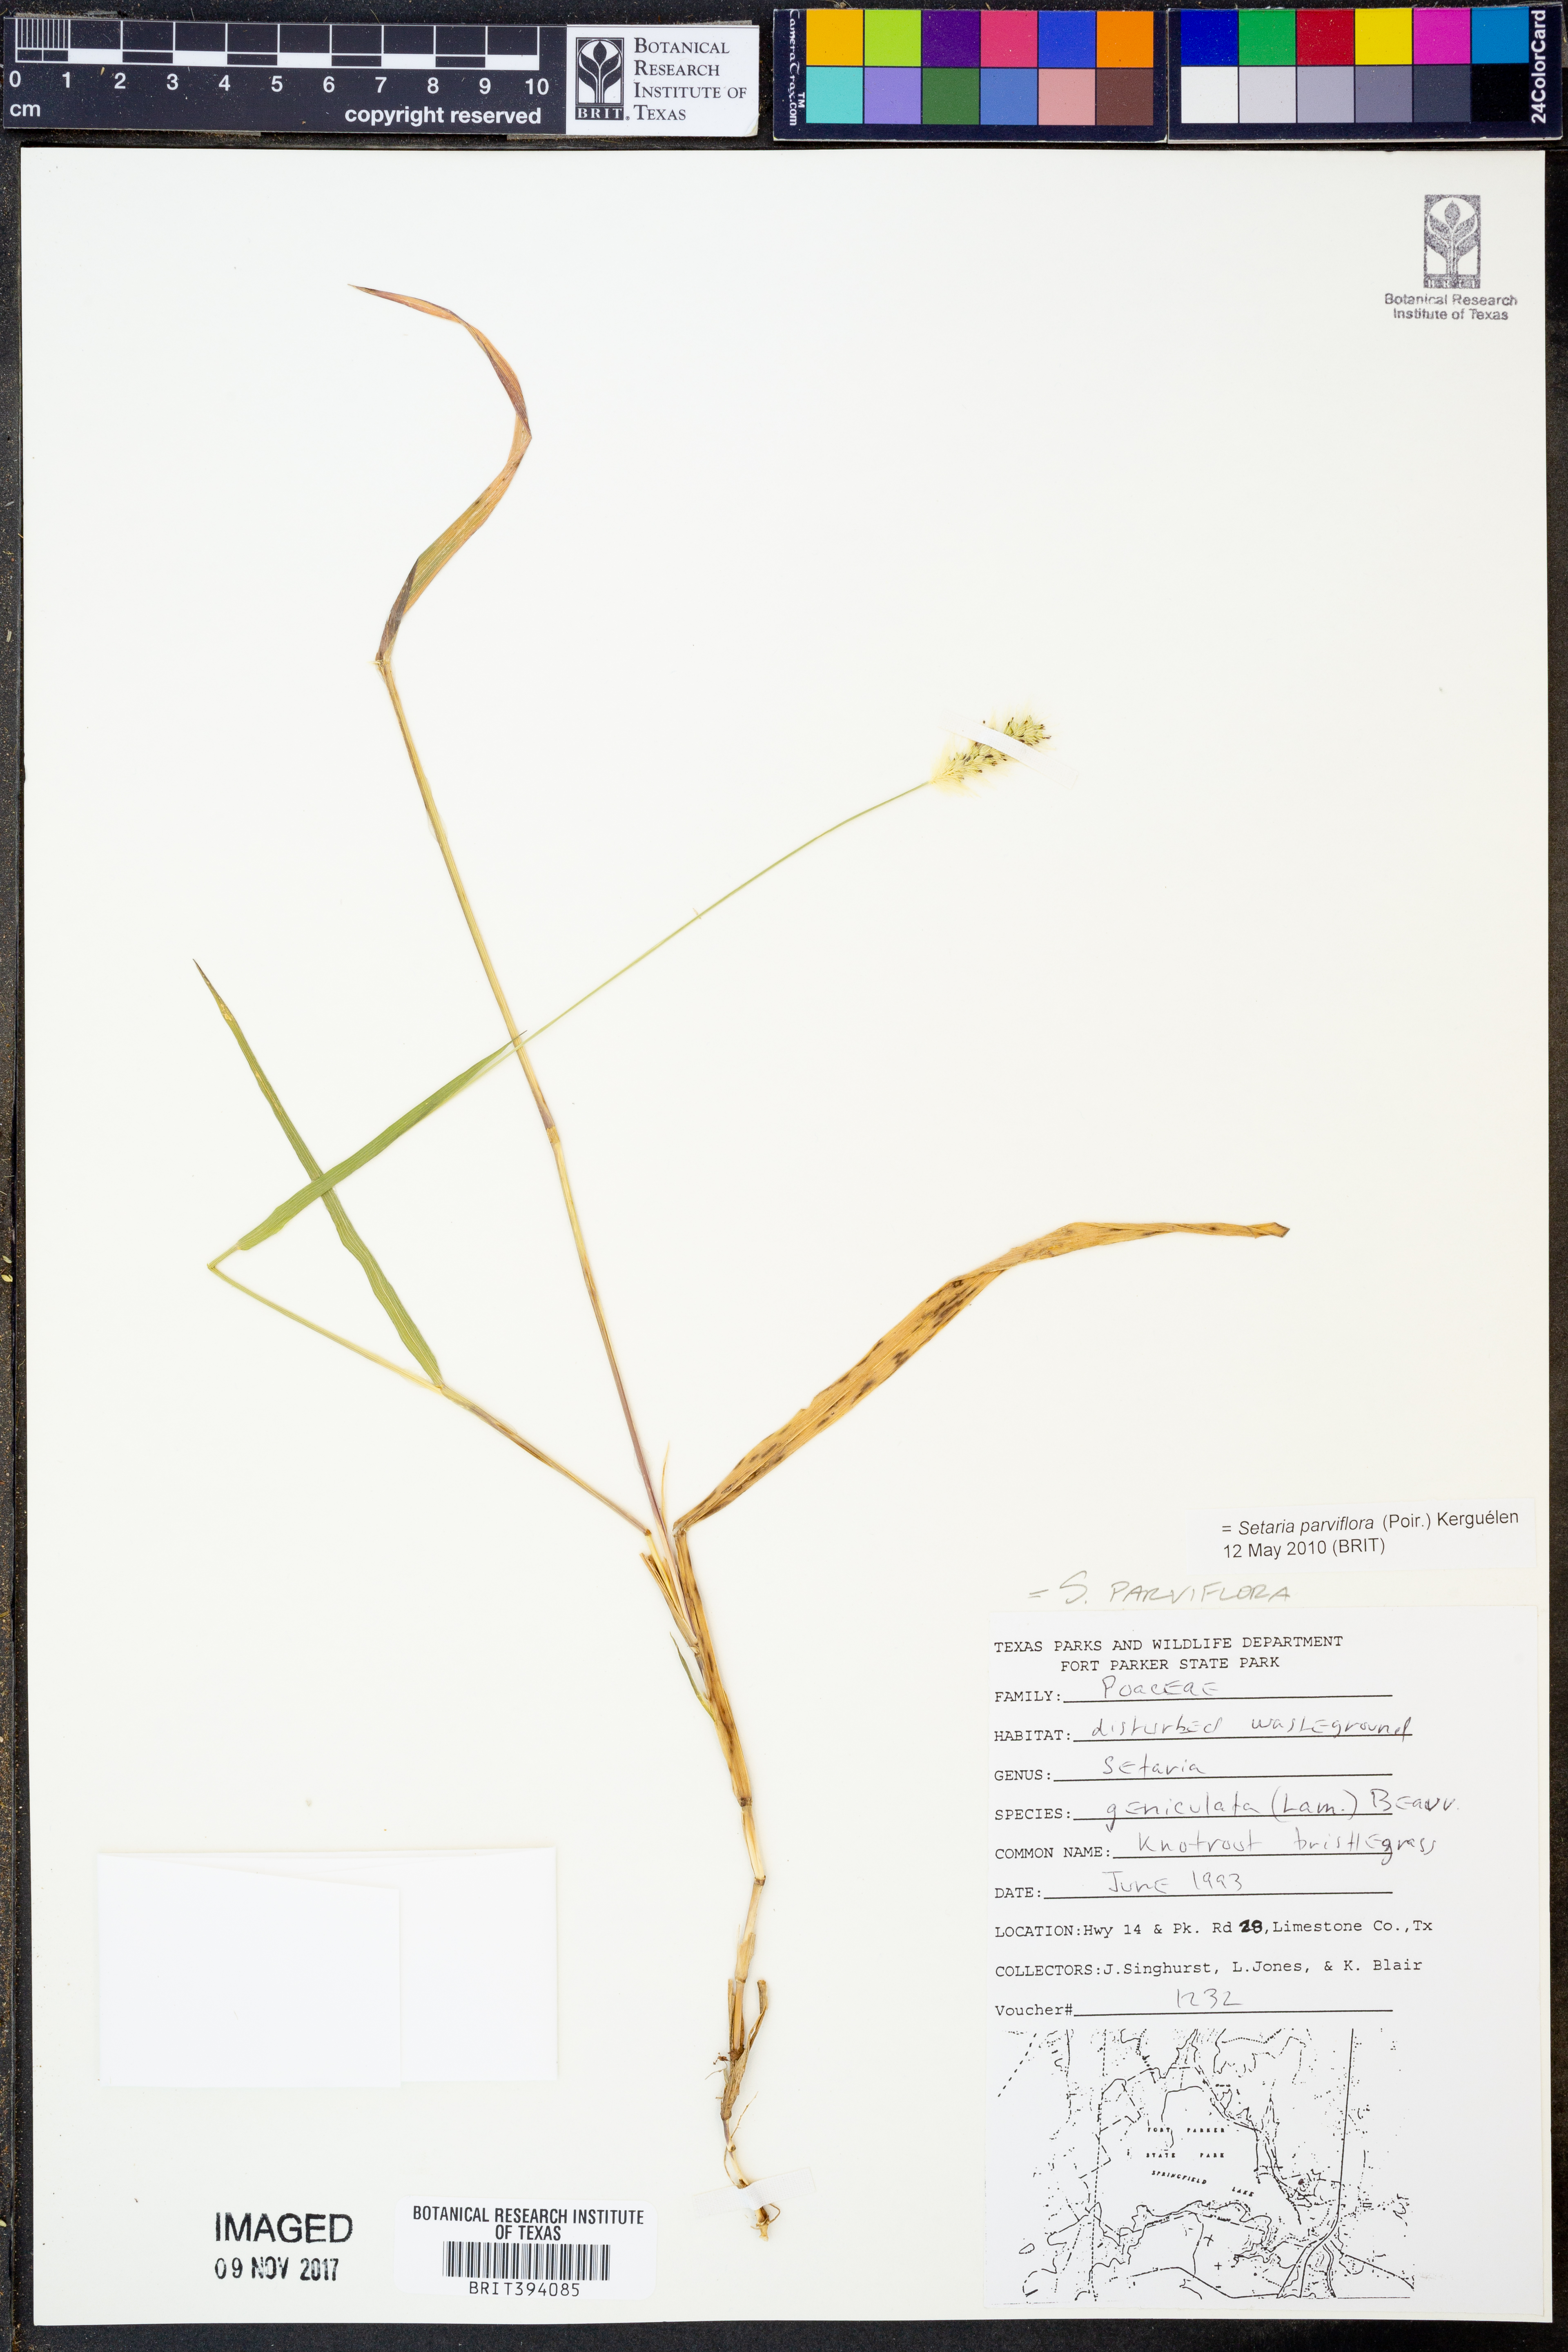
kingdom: Plantae
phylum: Tracheophyta
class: Liliopsida
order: Poales
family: Poaceae
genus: Setaria
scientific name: Setaria parviflora
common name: Knotroot bristle-grass
